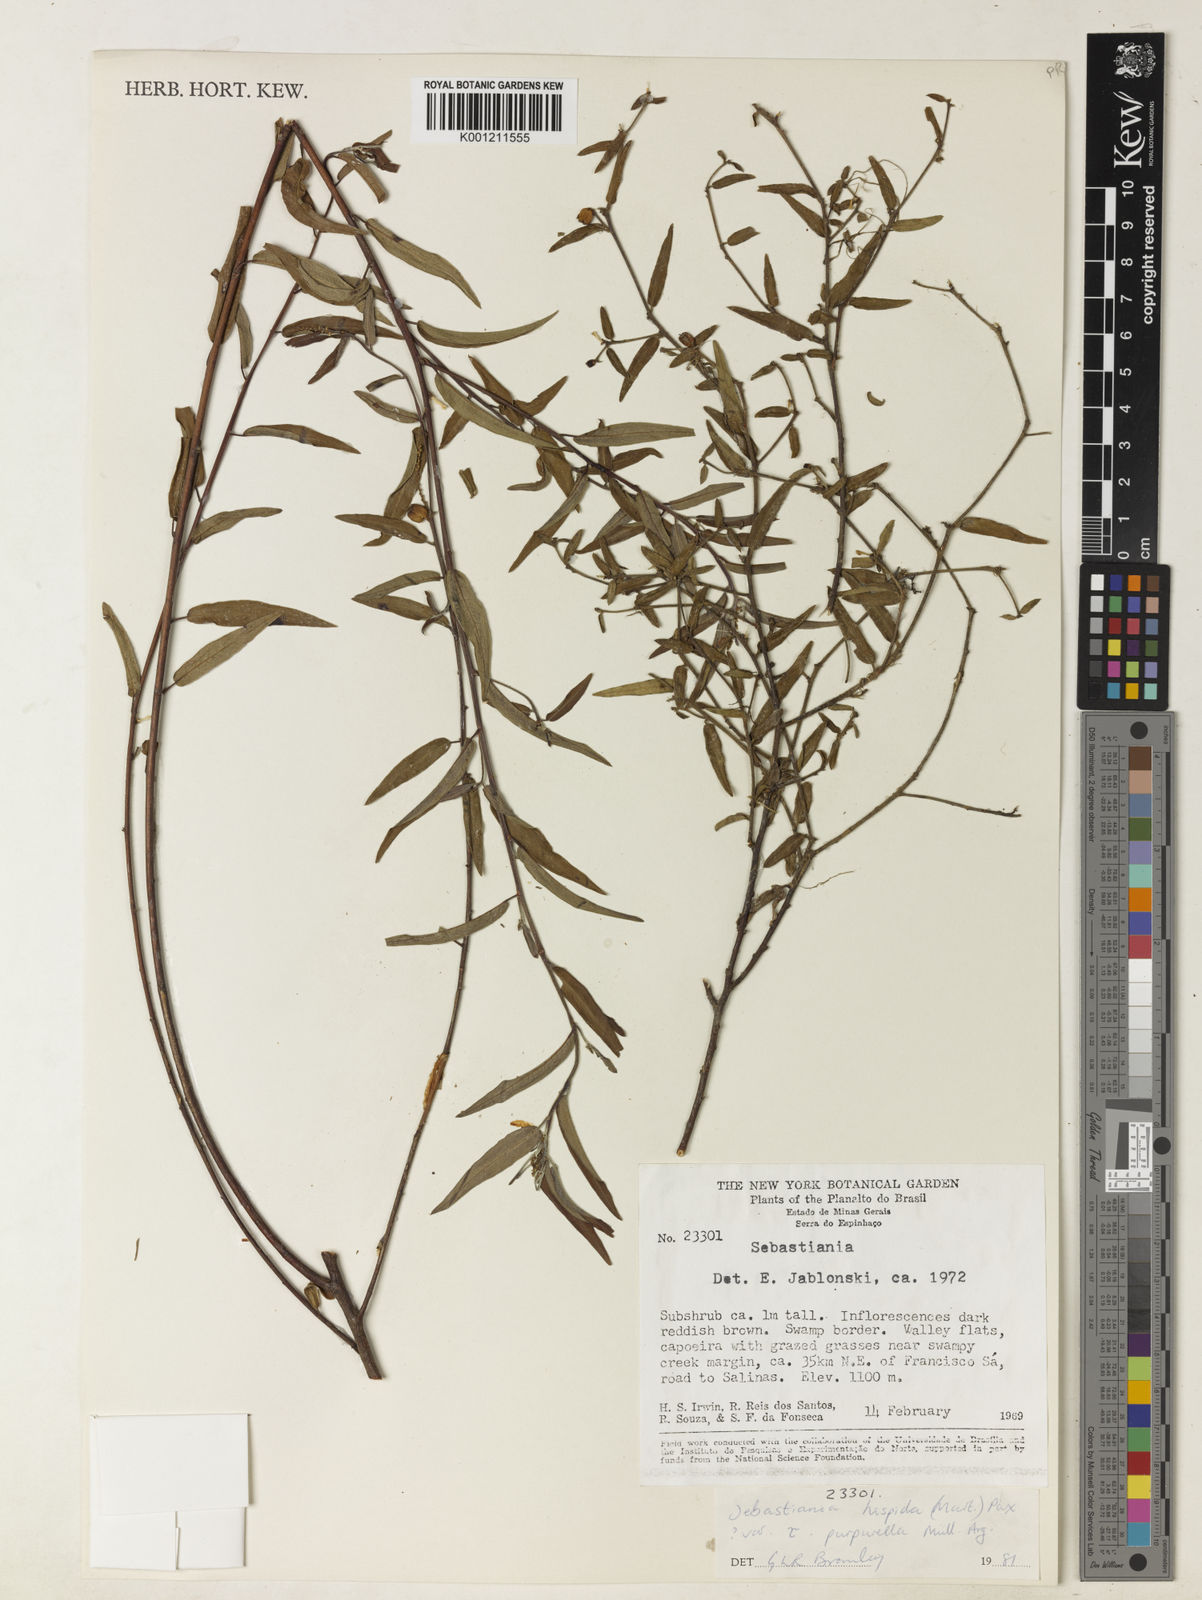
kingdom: Plantae
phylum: Tracheophyta
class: Magnoliopsida
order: Malpighiales
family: Euphorbiaceae
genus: Microstachys
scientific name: Microstachys hispida
